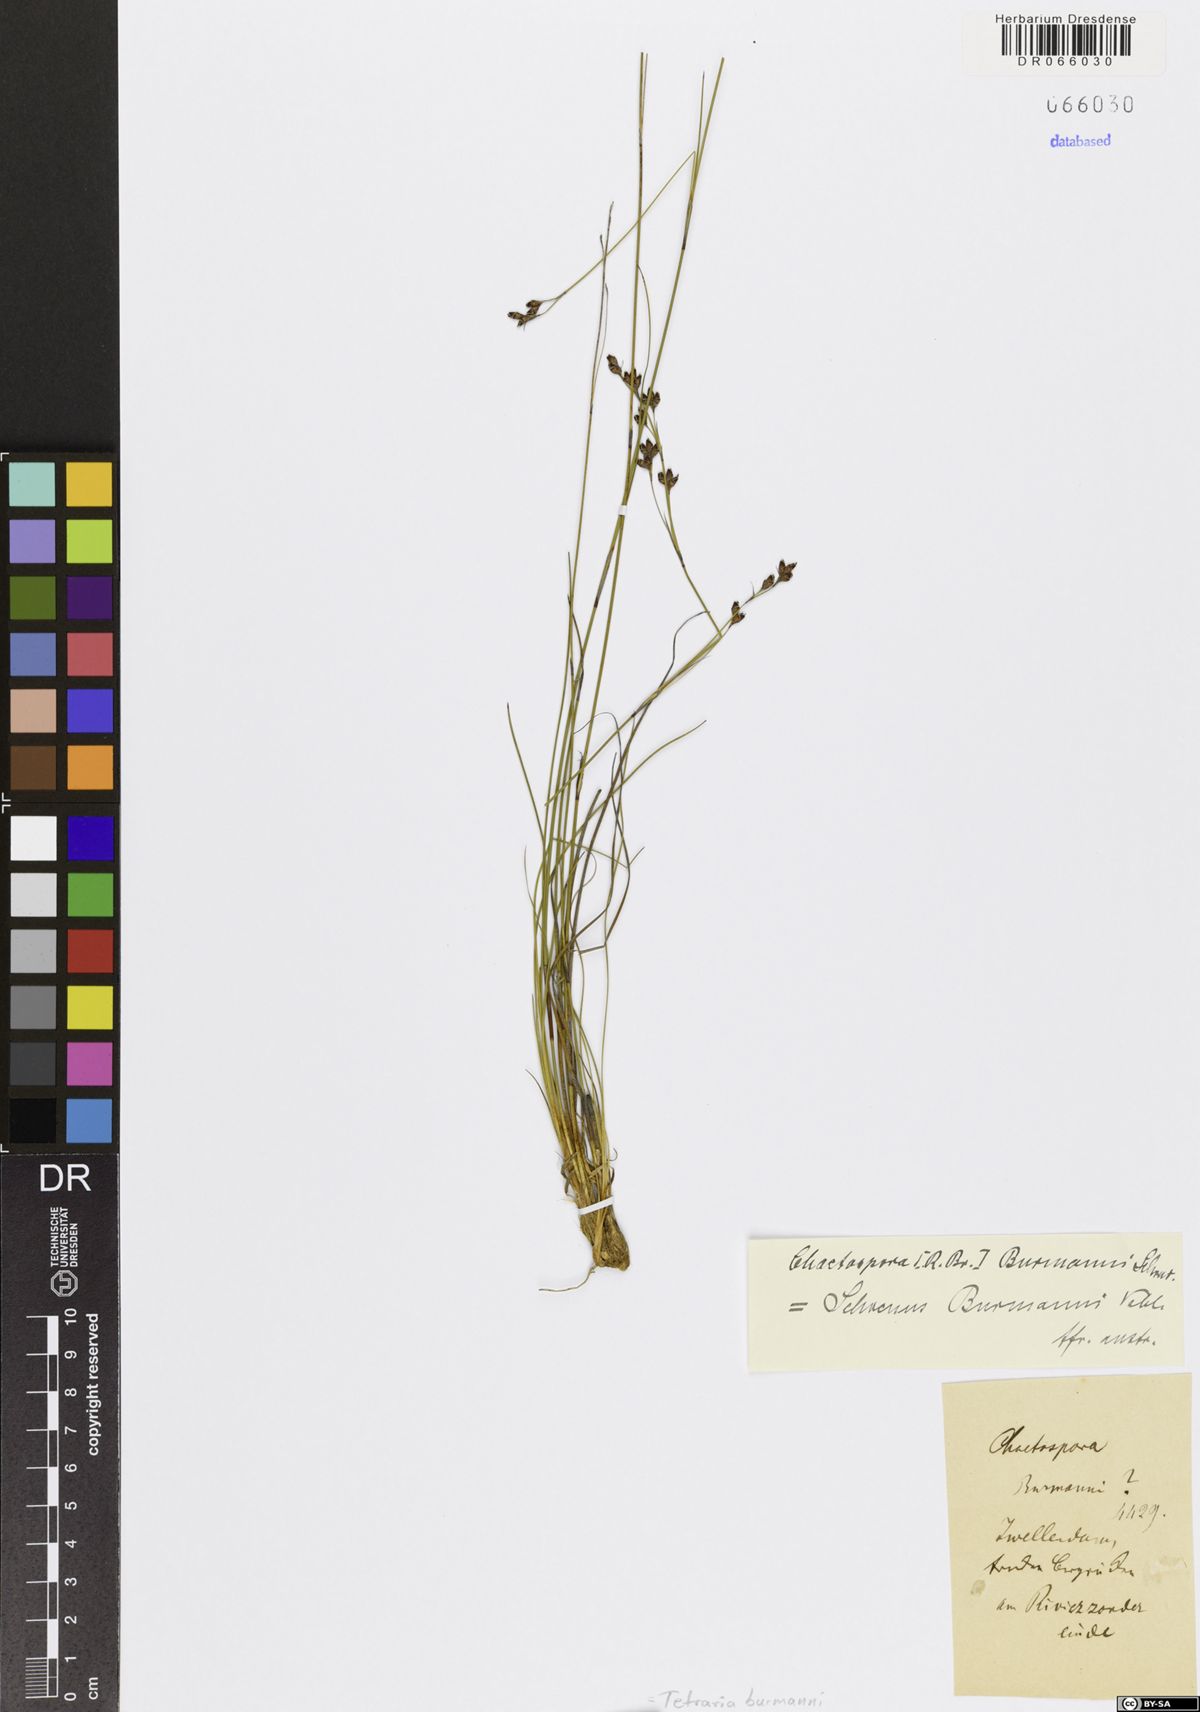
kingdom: Plantae
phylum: Tracheophyta
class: Liliopsida
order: Poales
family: Cyperaceae
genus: Tetraria
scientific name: Tetraria burmanni
